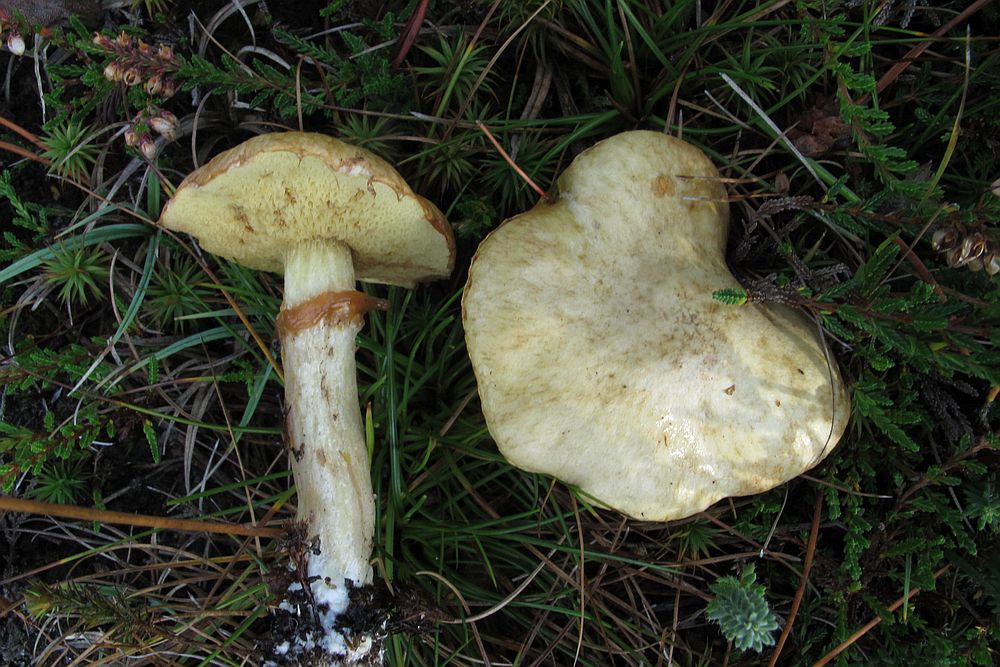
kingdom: Fungi
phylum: Basidiomycota
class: Agaricomycetes
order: Boletales
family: Suillaceae
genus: Suillus
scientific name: Suillus flavidus
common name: mose-slimrørhat
